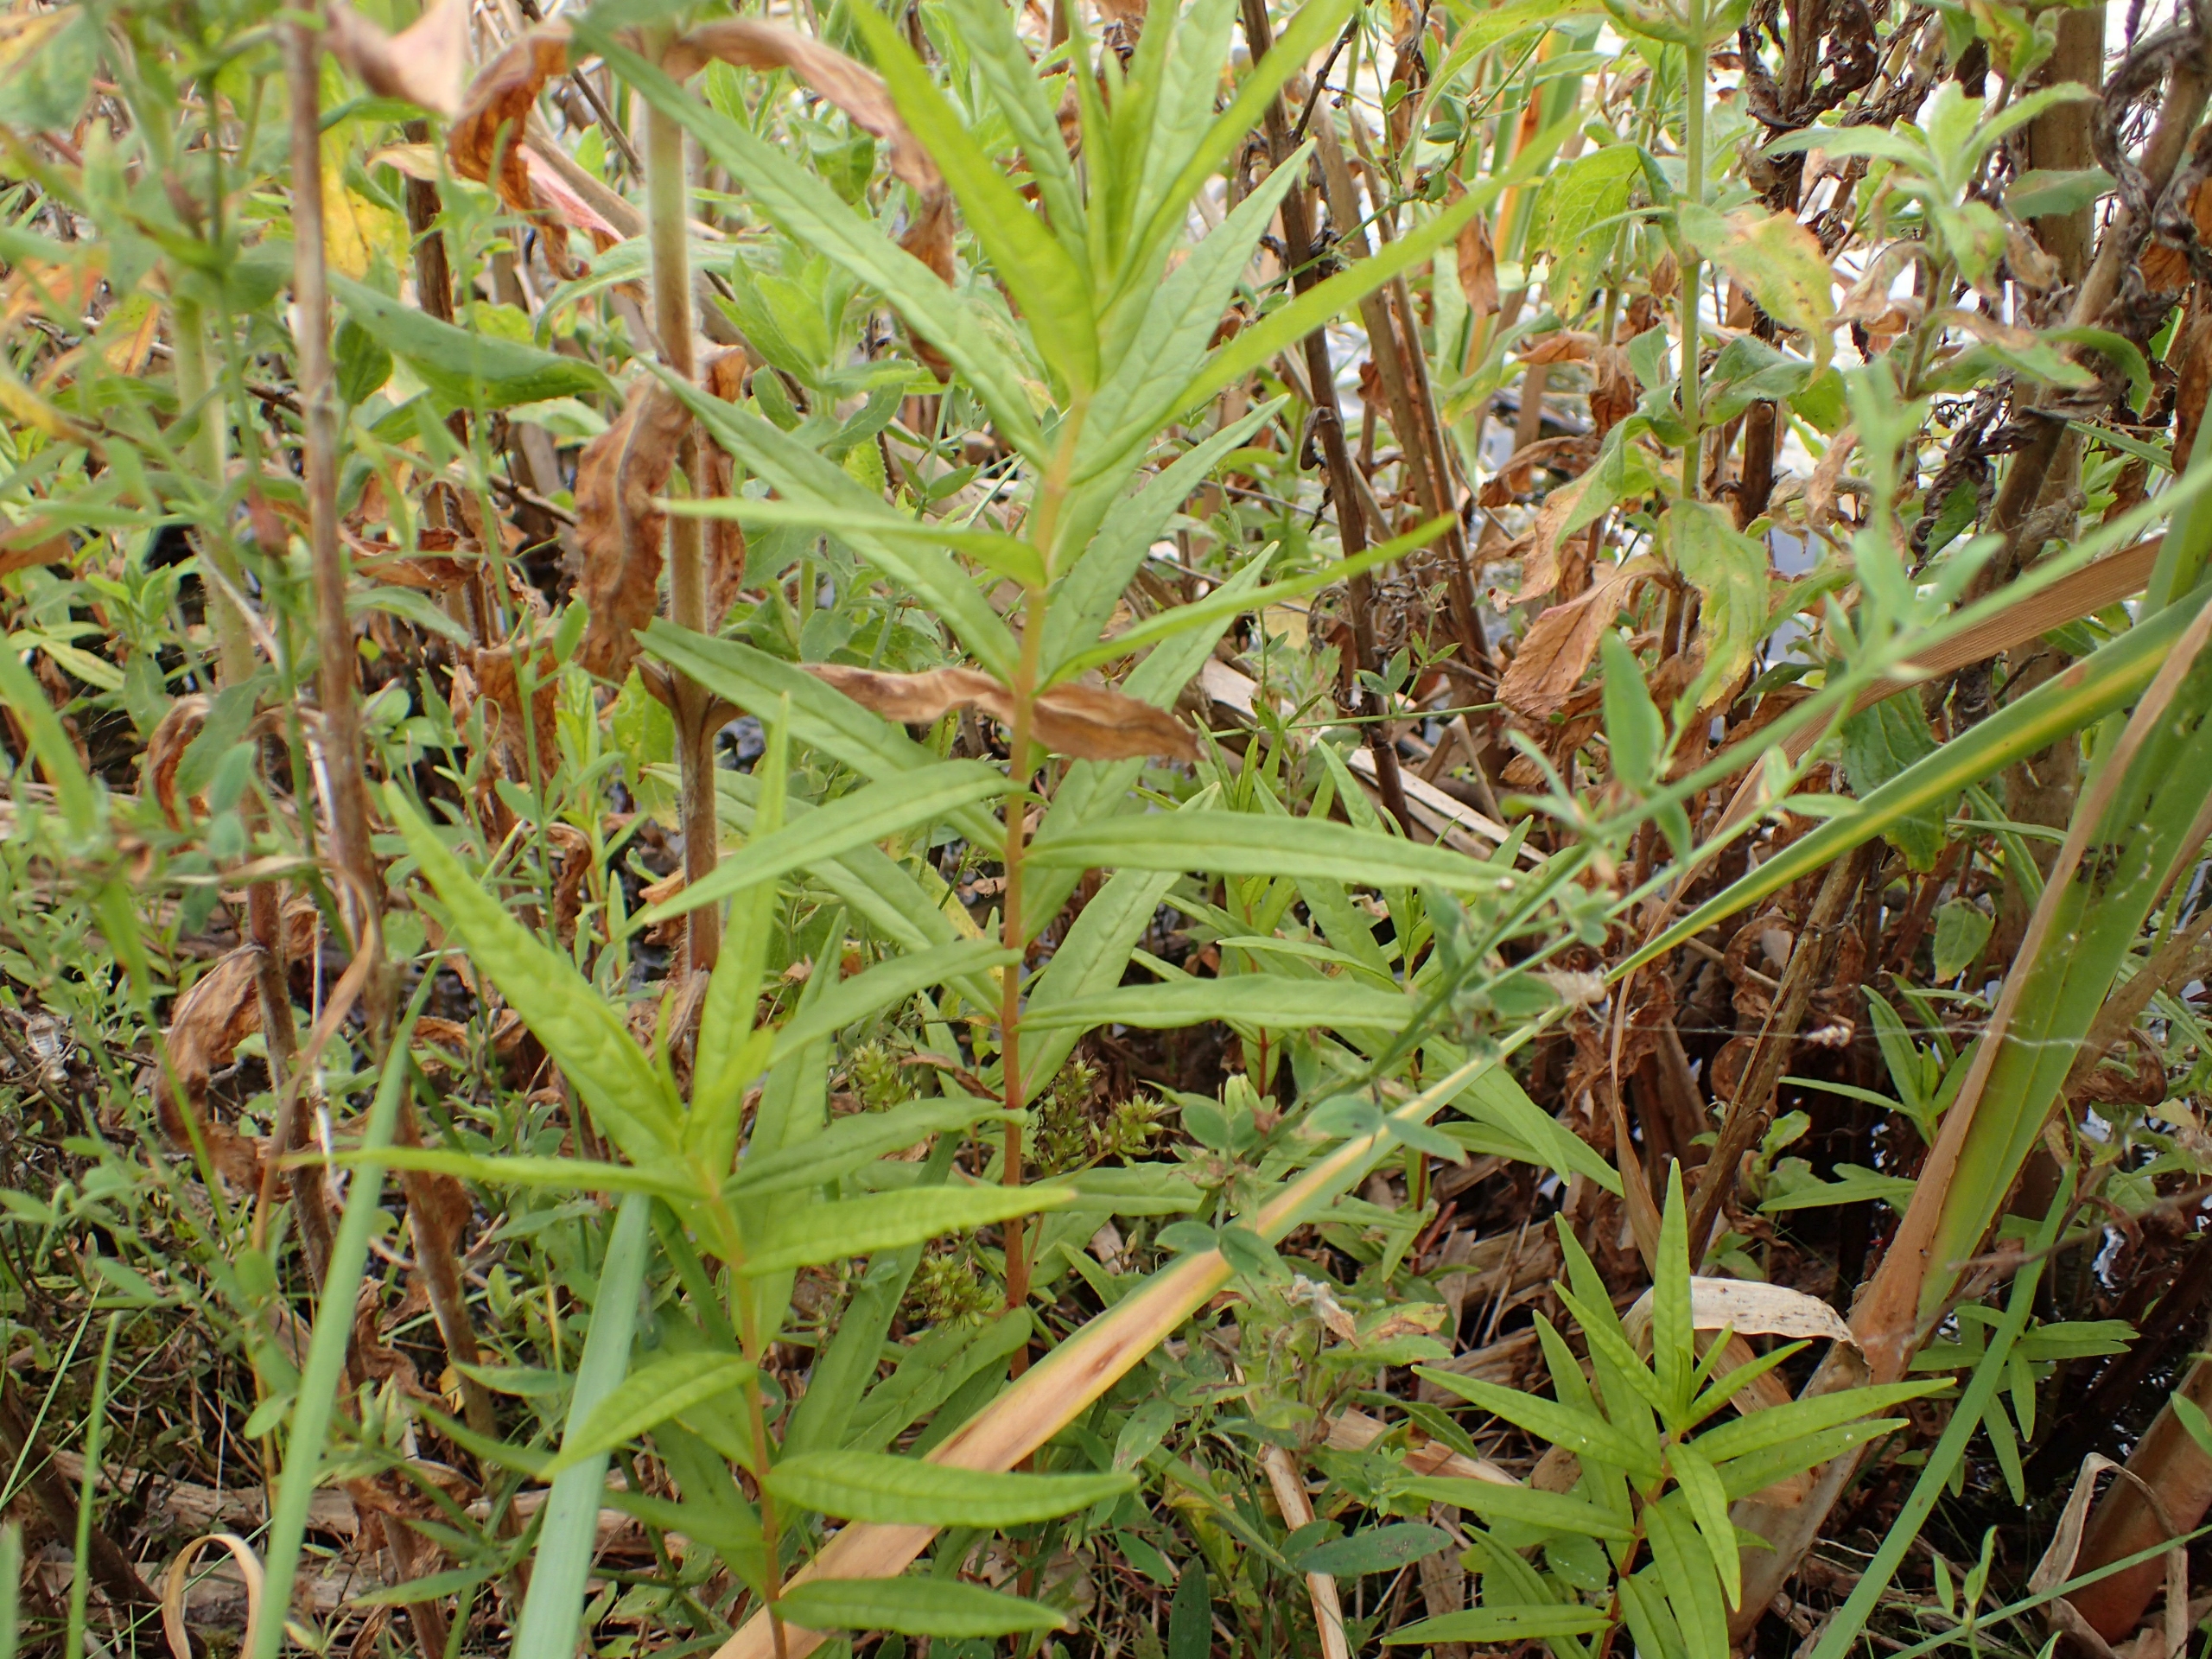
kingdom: Plantae
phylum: Tracheophyta
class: Magnoliopsida
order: Ericales
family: Primulaceae
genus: Lysimachia
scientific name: Lysimachia thyrsiflora
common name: Dusk-fredløs
